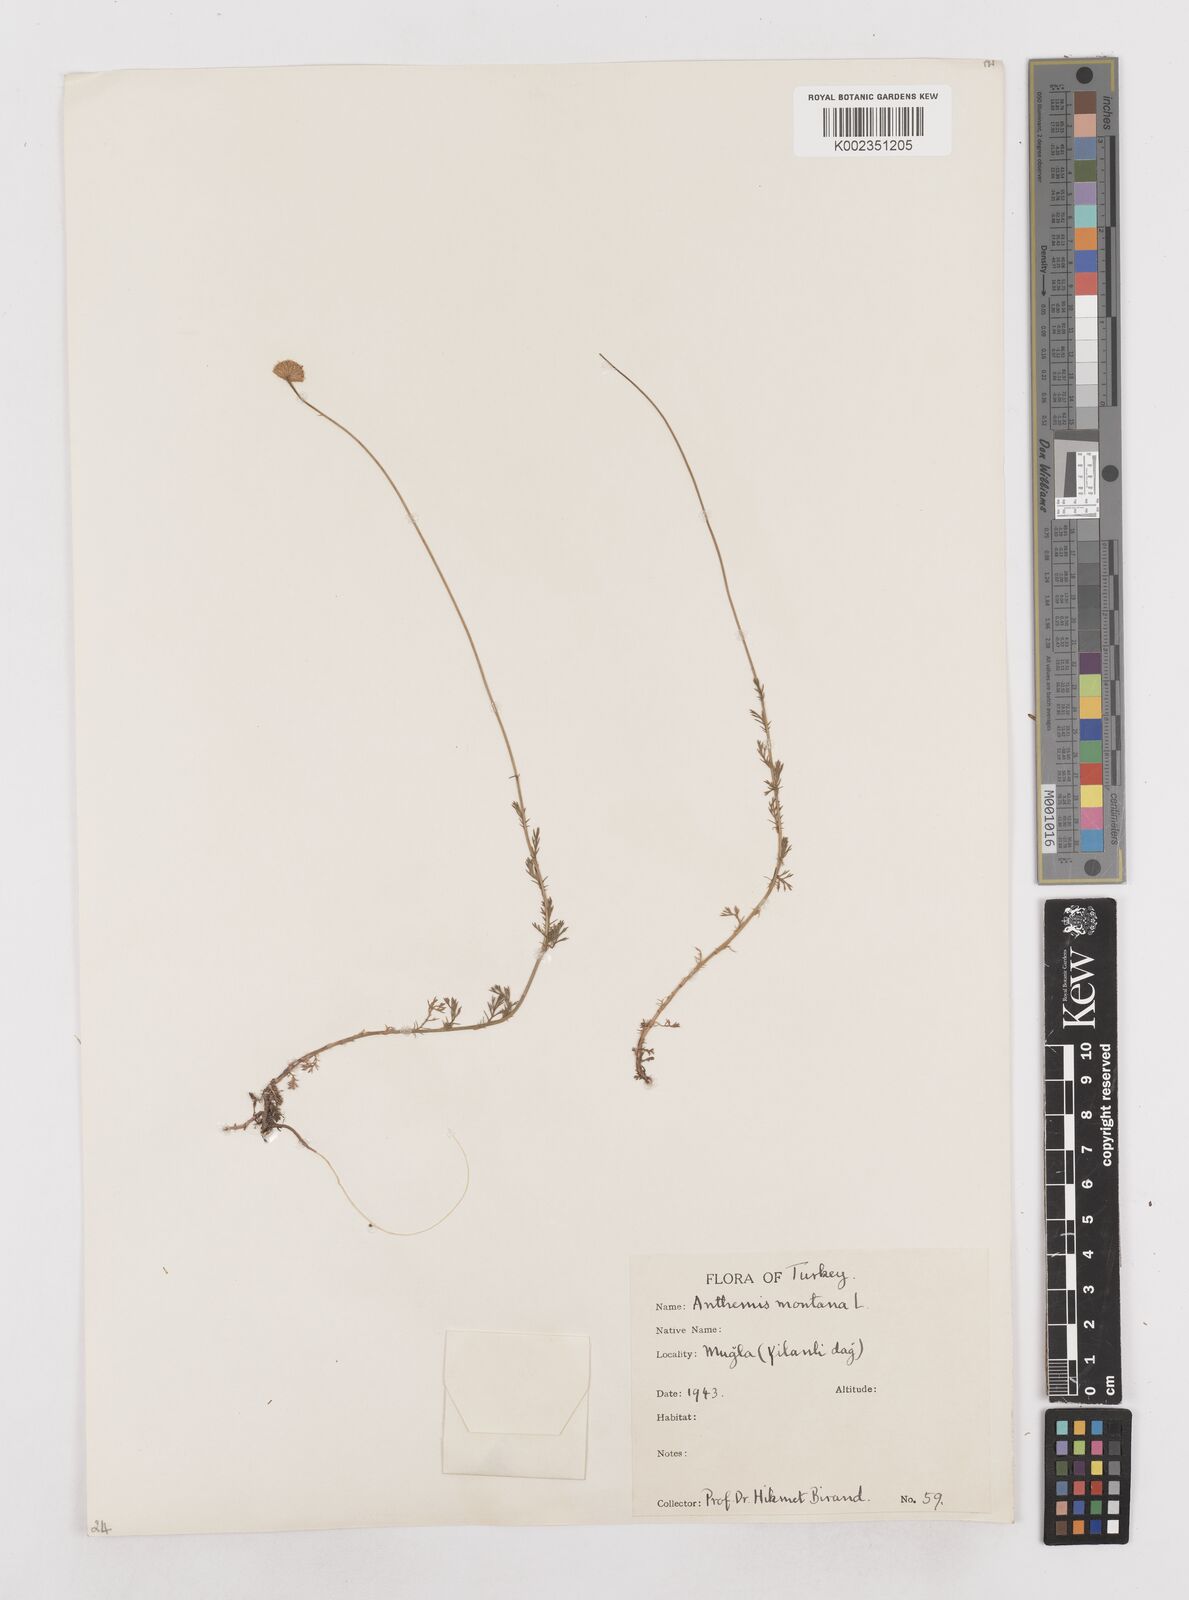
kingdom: Plantae
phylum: Tracheophyta
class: Magnoliopsida
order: Asterales
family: Asteraceae
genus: Anthemis
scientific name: Anthemis cretica
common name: Mountain dog-daisy
